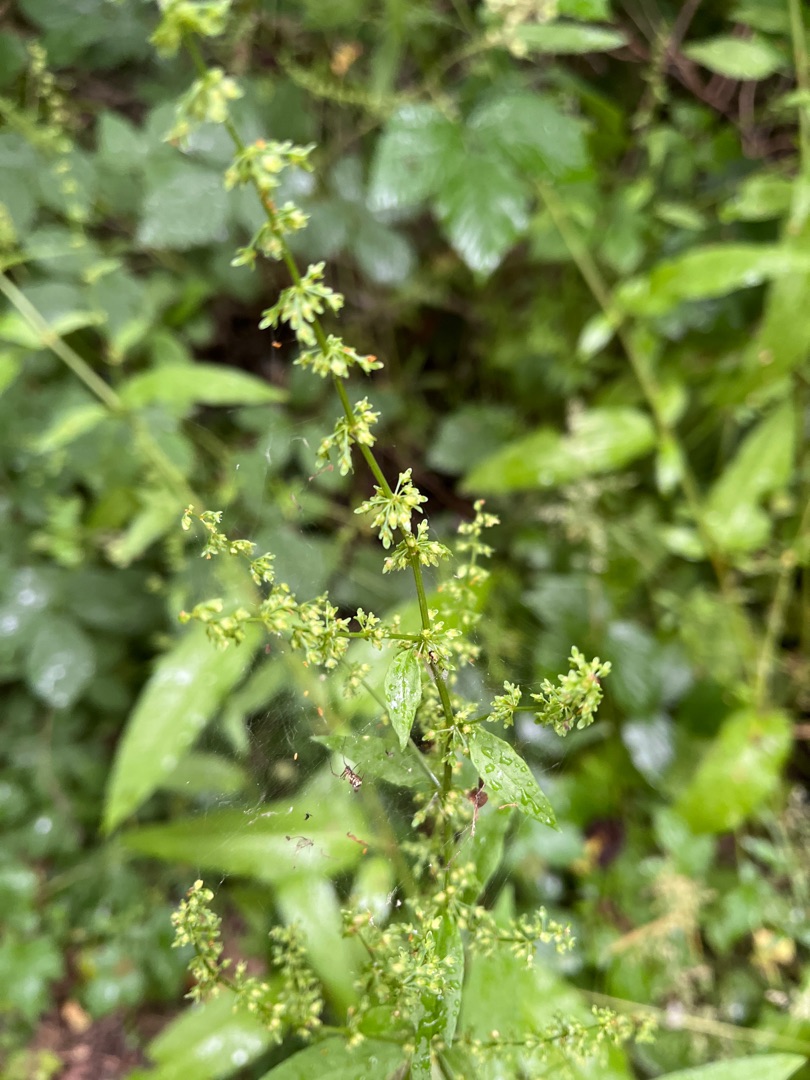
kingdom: Plantae
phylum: Tracheophyta
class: Magnoliopsida
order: Caryophyllales
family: Polygonaceae
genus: Rumex
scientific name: Rumex sanguineus
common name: Skov-skræppe
